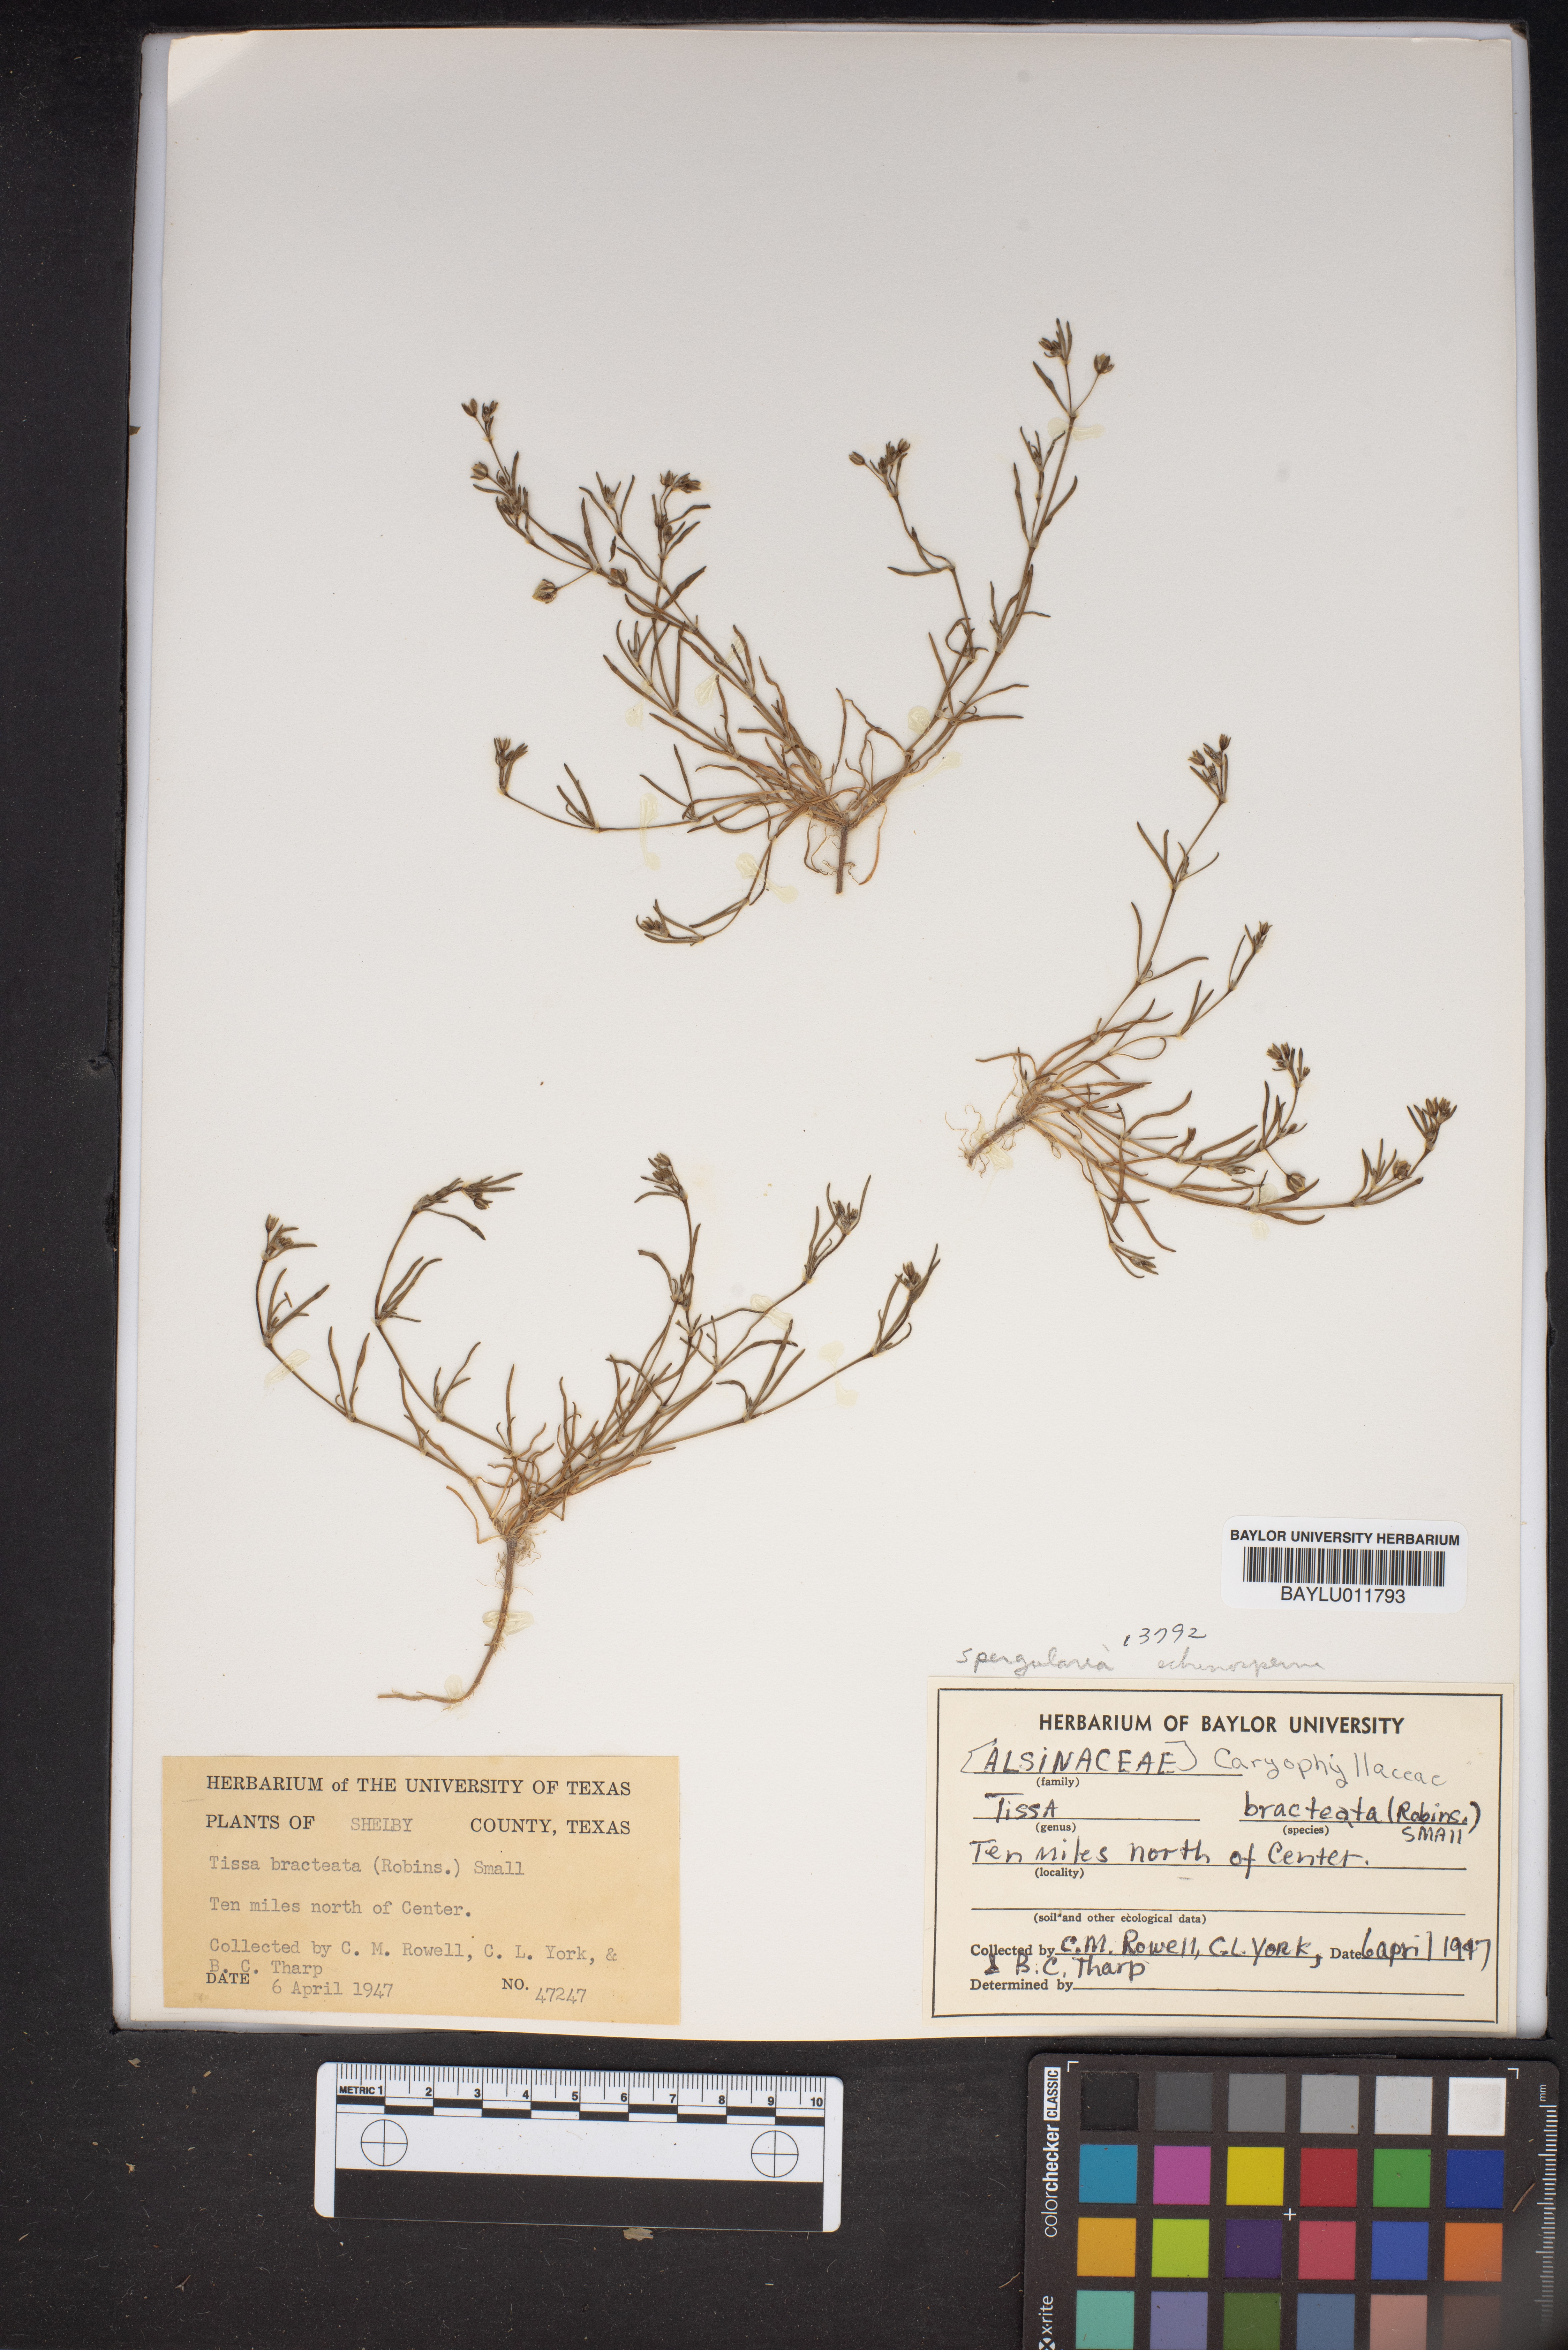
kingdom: Plantae
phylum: Tracheophyta
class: Magnoliopsida
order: Caryophyllales
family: Caryophyllaceae
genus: Spergularia
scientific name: Spergularia diandra
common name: Alkali sand-spurrey
